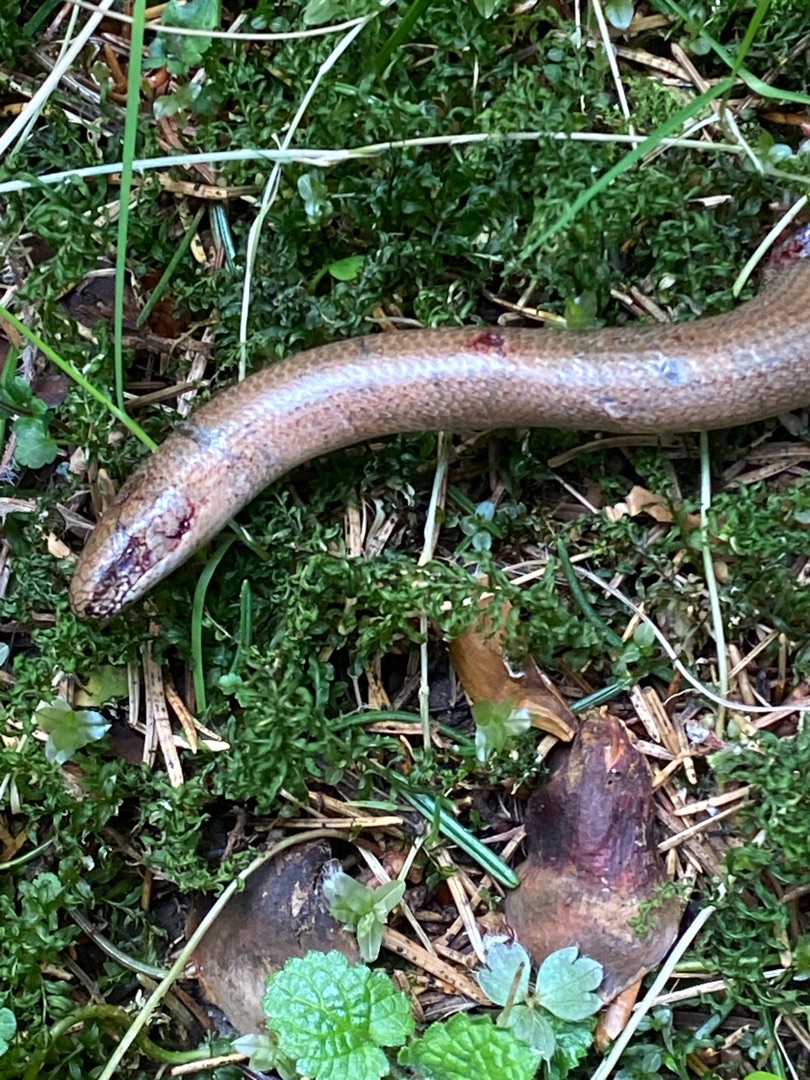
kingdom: Animalia
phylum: Chordata
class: Squamata
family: Anguidae
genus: Anguis
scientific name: Anguis fragilis
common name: Stålorm
